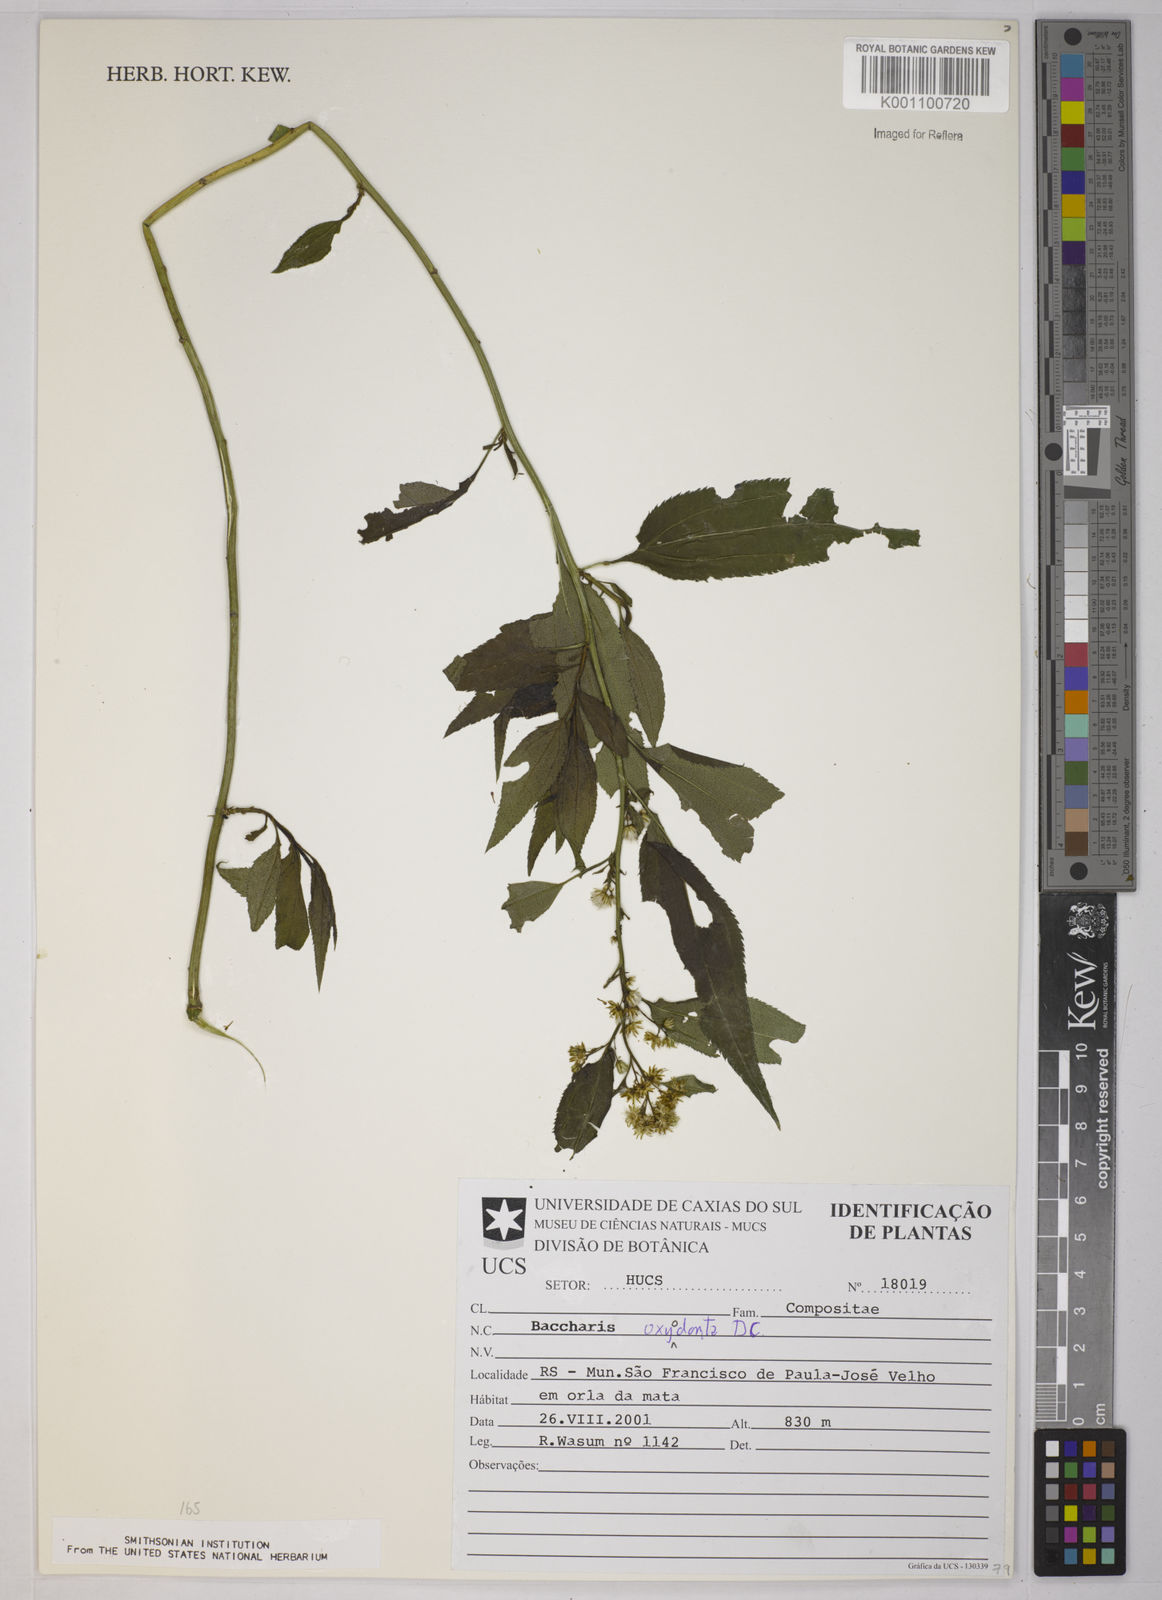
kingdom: Plantae
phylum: Tracheophyta
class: Magnoliopsida
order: Asterales
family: Asteraceae
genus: Baccharis
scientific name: Baccharis oxyodonta
